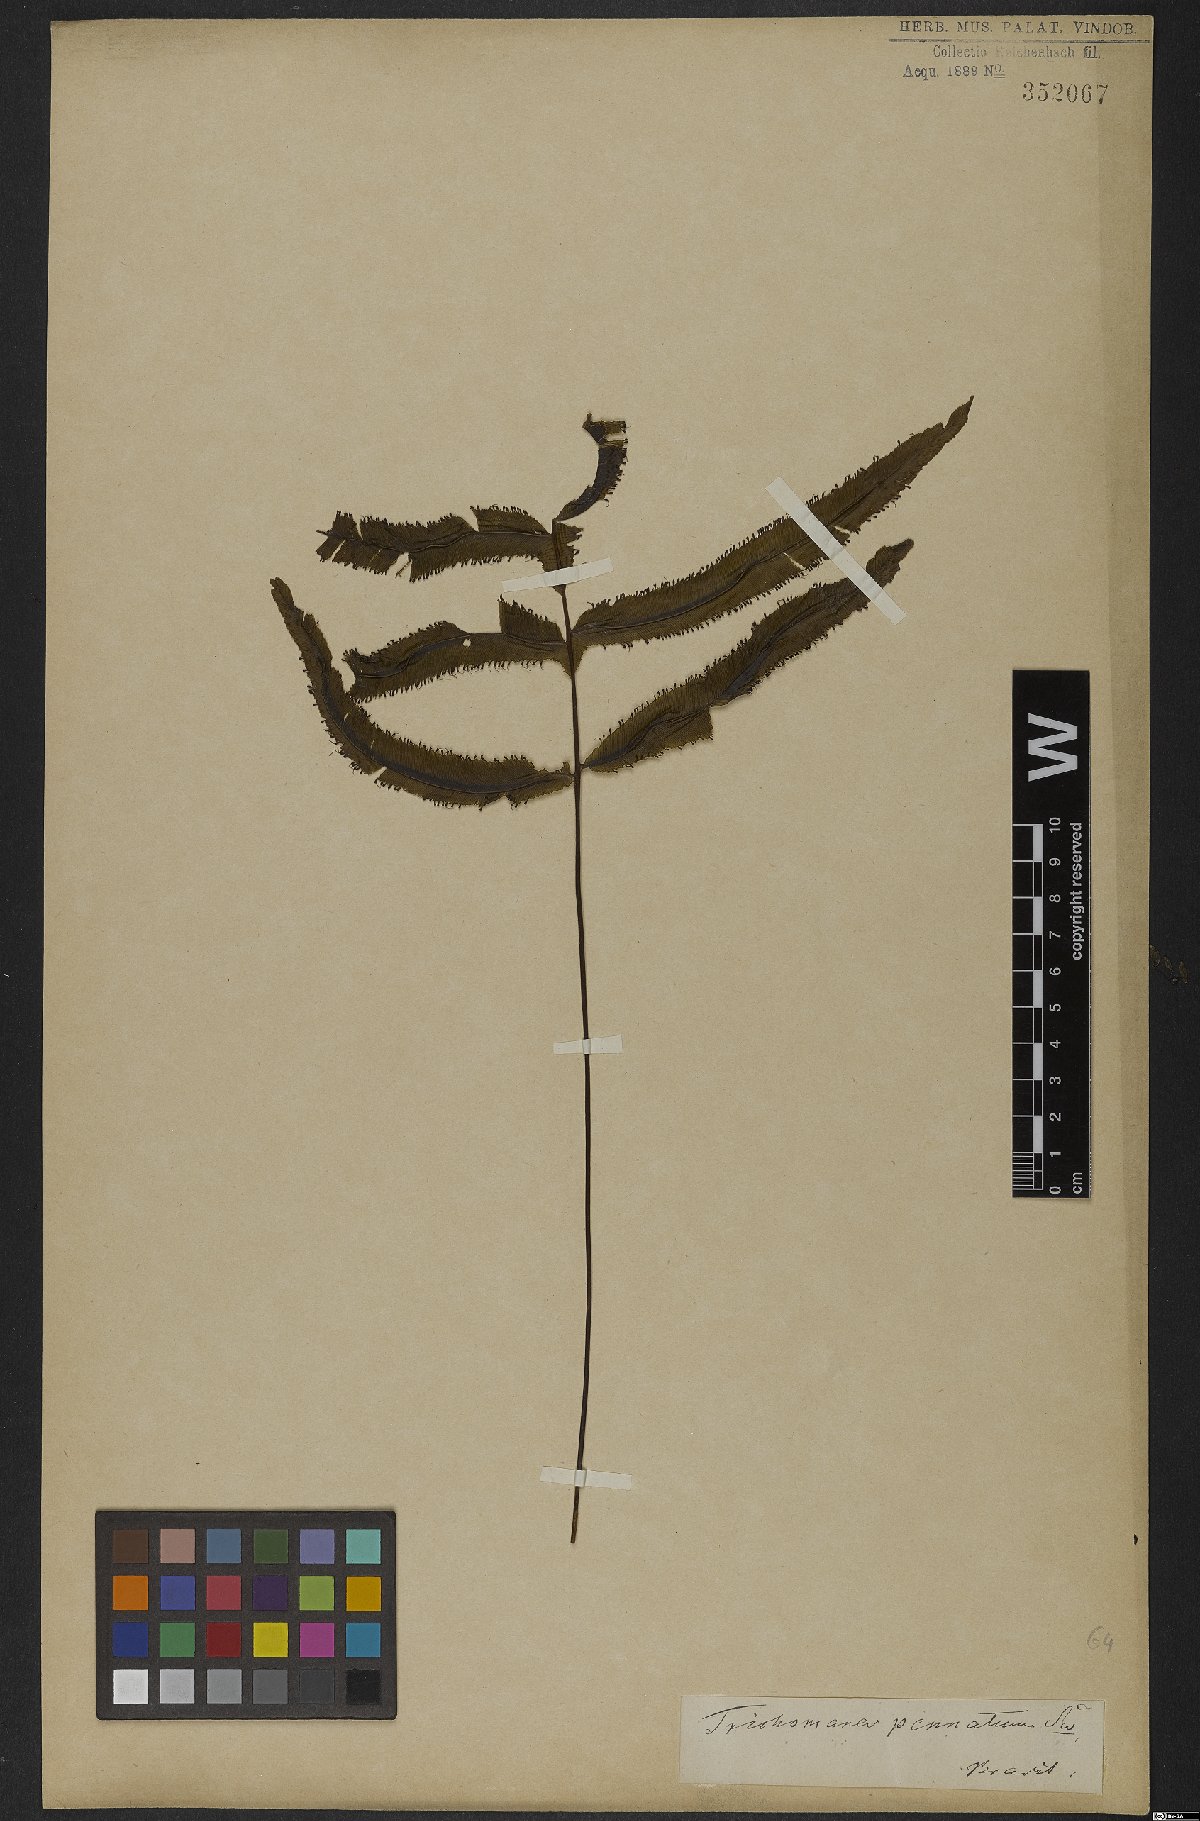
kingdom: Plantae
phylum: Tracheophyta
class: Polypodiopsida
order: Hymenophyllales
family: Hymenophyllaceae
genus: Trichomanes
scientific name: Trichomanes pinnatum
